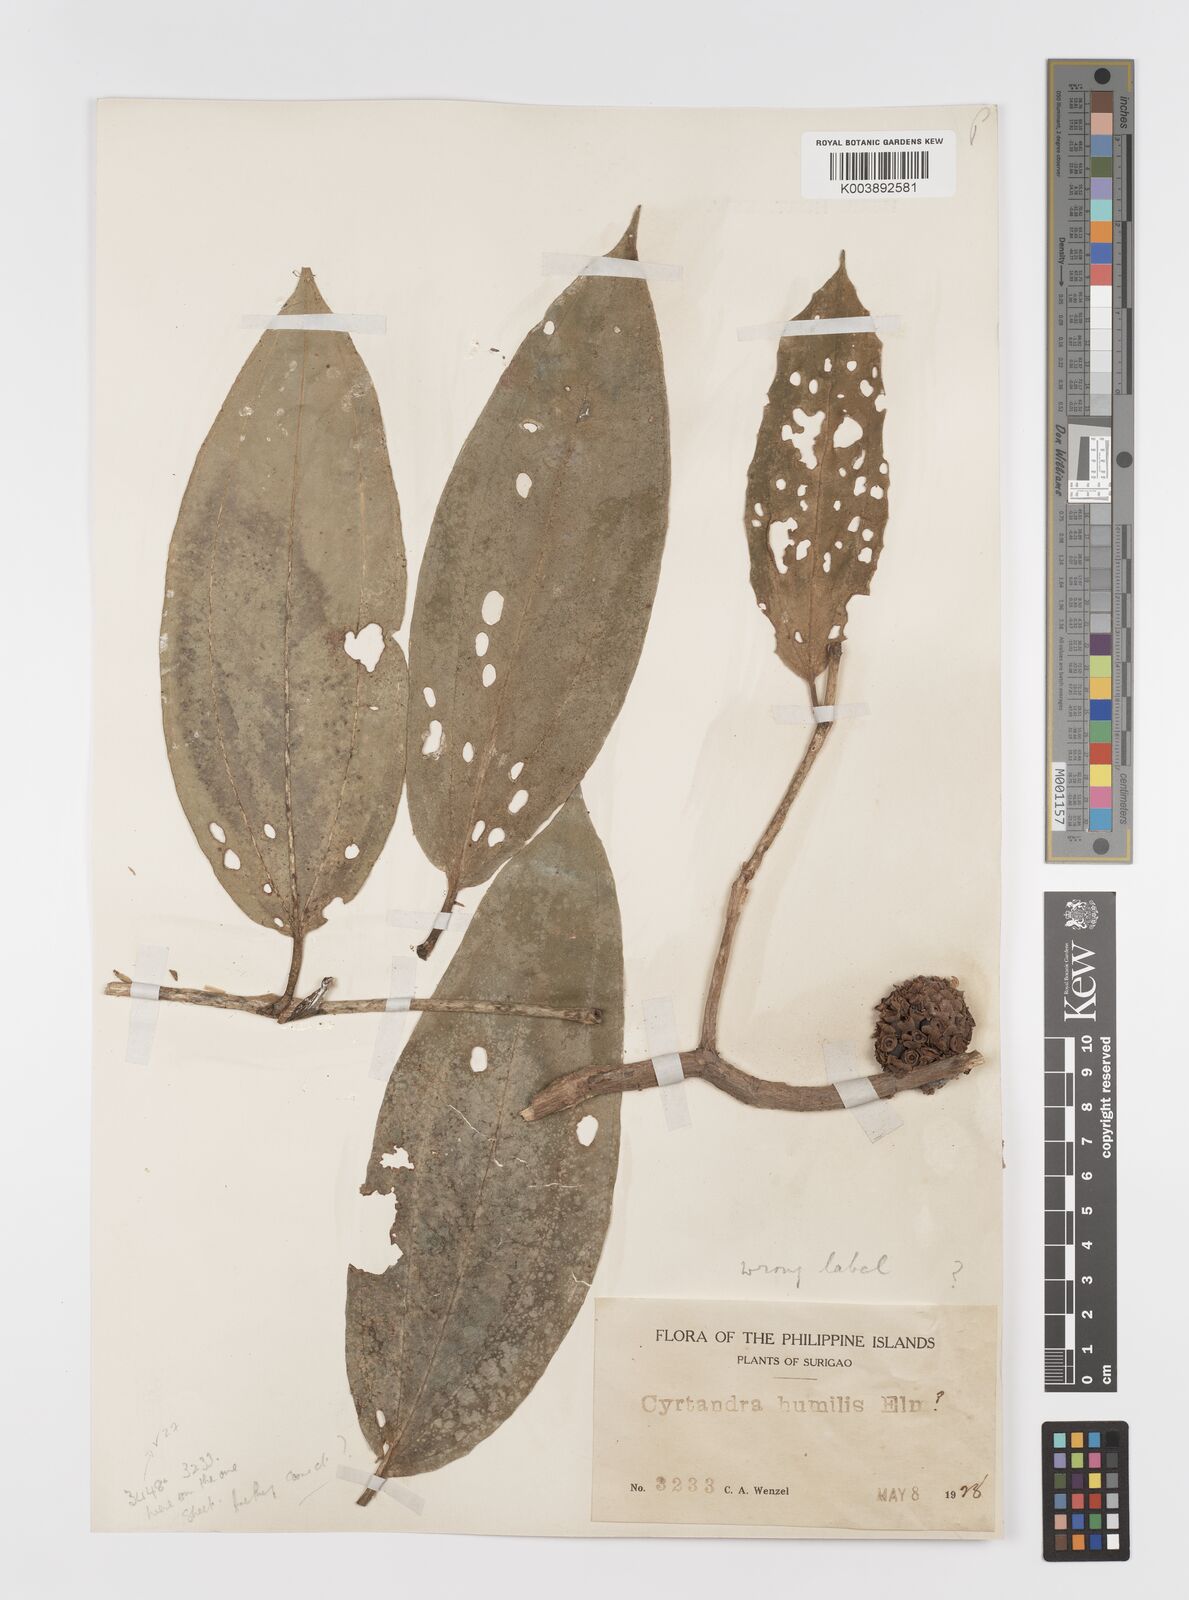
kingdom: Plantae
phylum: Tracheophyta
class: Magnoliopsida
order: Myrtales
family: Melastomataceae
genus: Medinilla
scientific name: Medinilla cephalophora
